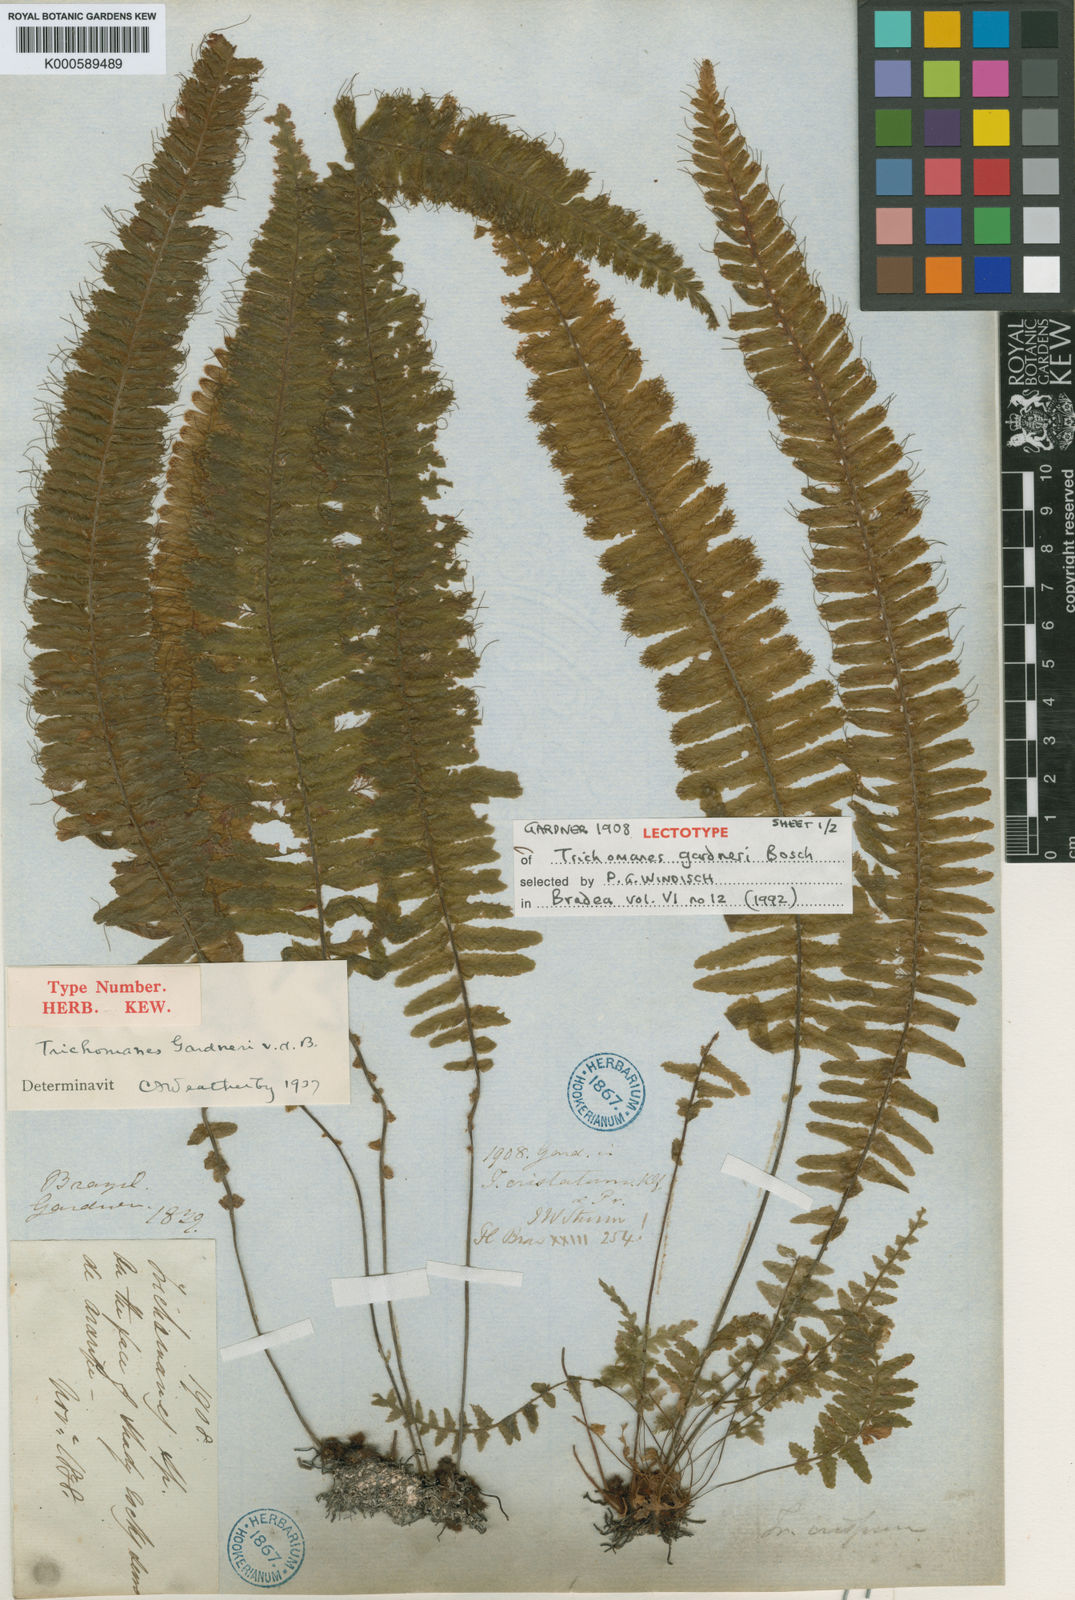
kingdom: Plantae
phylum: Tracheophyta
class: Polypodiopsida
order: Hymenophyllales
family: Hymenophyllaceae
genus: Trichomanes
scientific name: Trichomanes crispum
